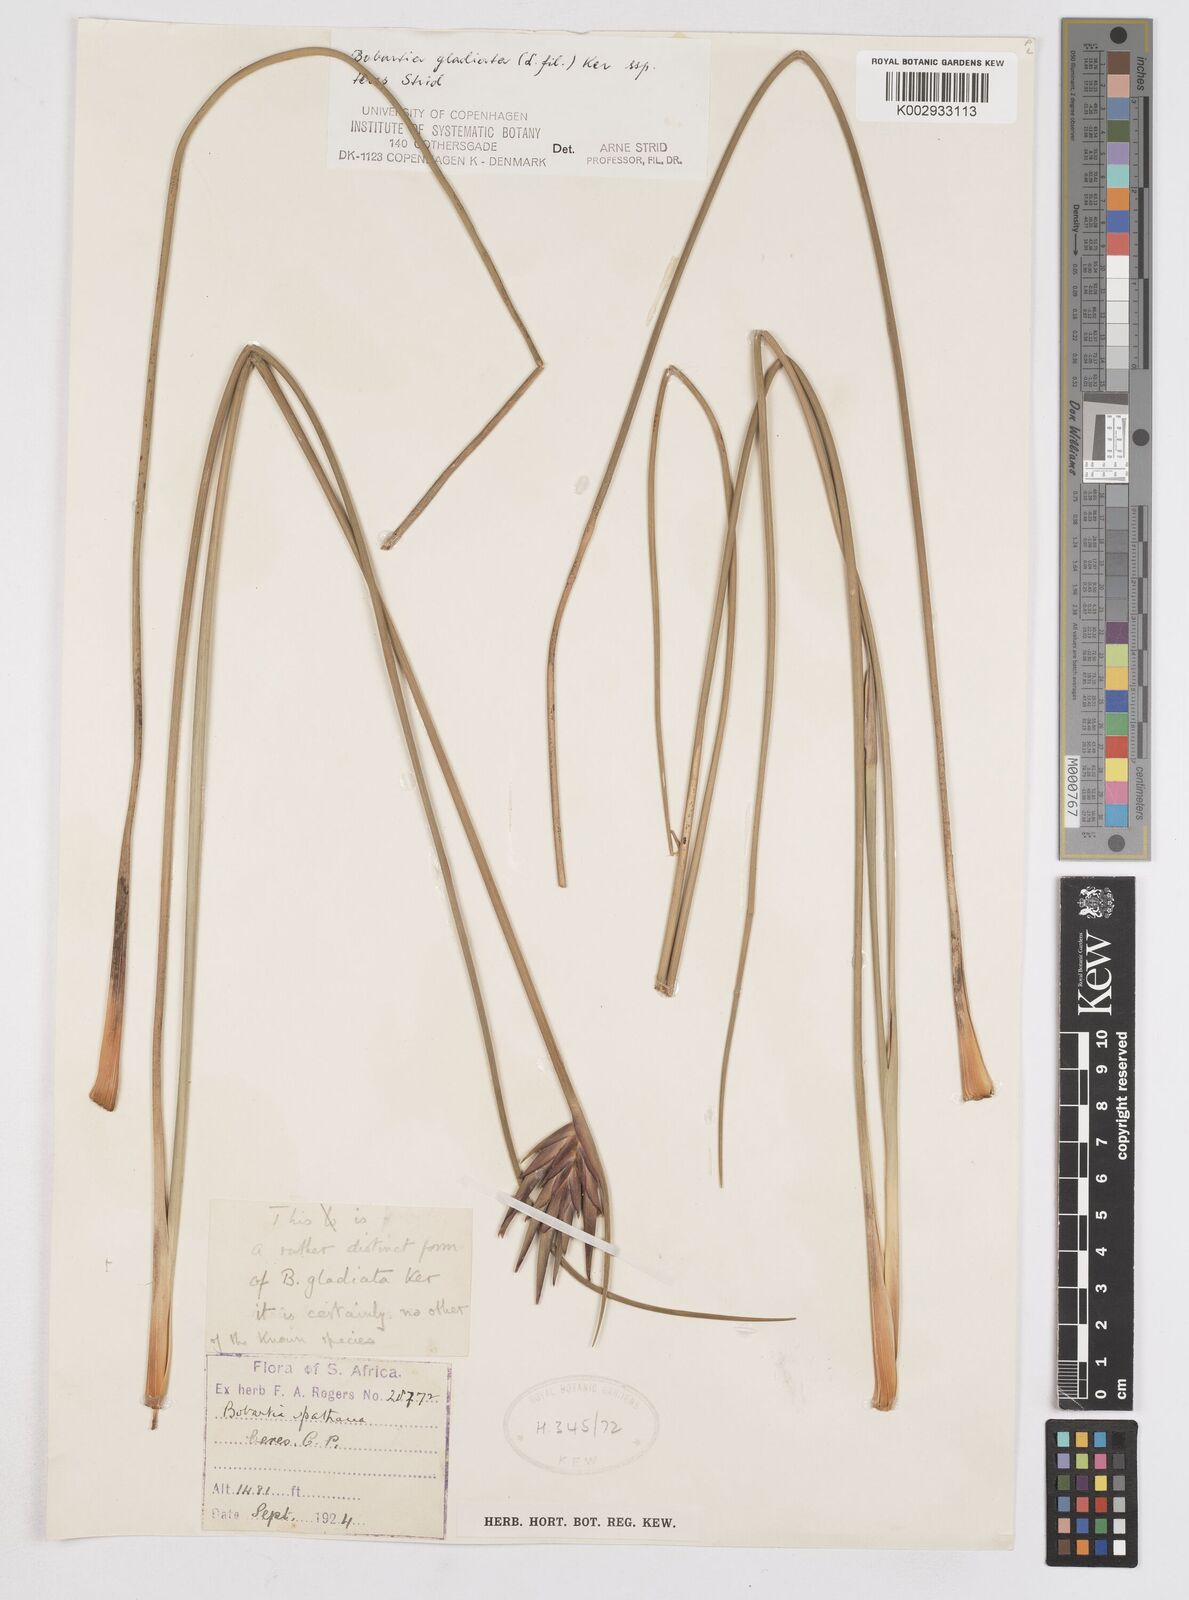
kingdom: Plantae
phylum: Tracheophyta
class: Liliopsida
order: Asparagales
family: Iridaceae
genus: Bobartia
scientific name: Bobartia gladiata
